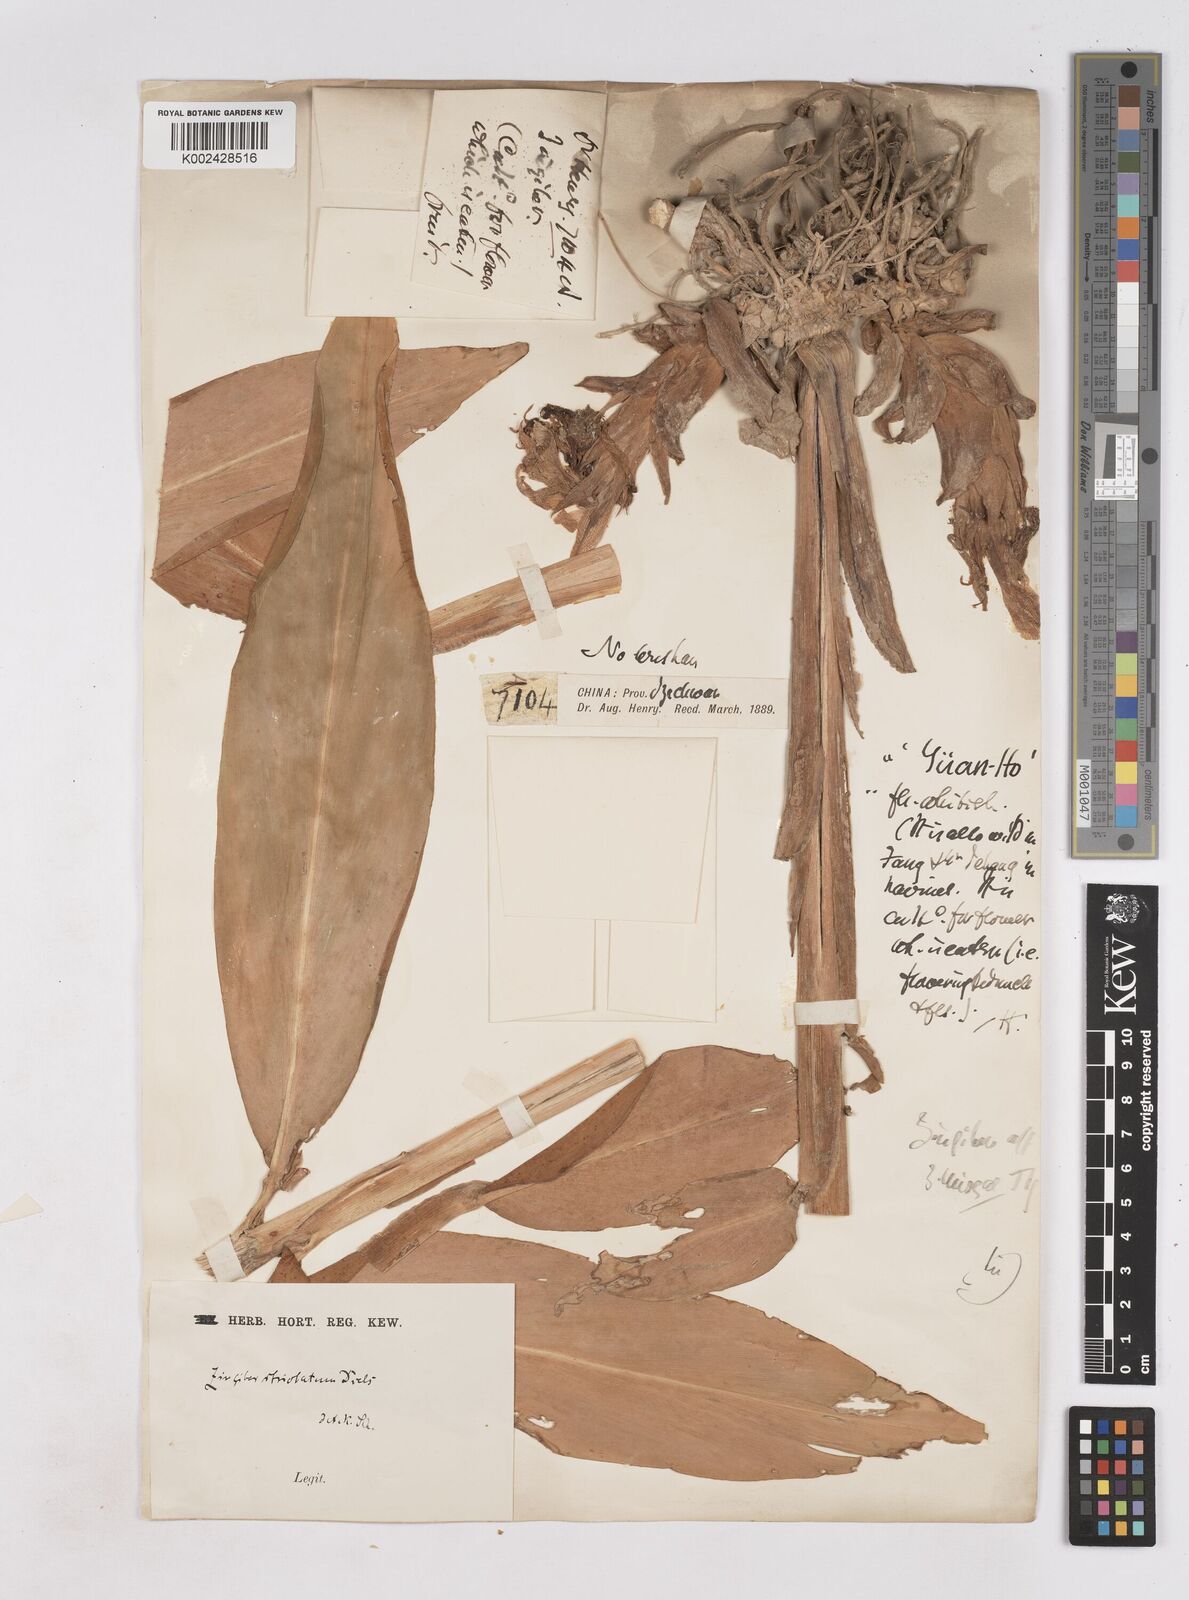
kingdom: Plantae
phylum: Tracheophyta
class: Liliopsida
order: Zingiberales
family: Zingiberaceae
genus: Zingiber
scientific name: Zingiber striolatum
